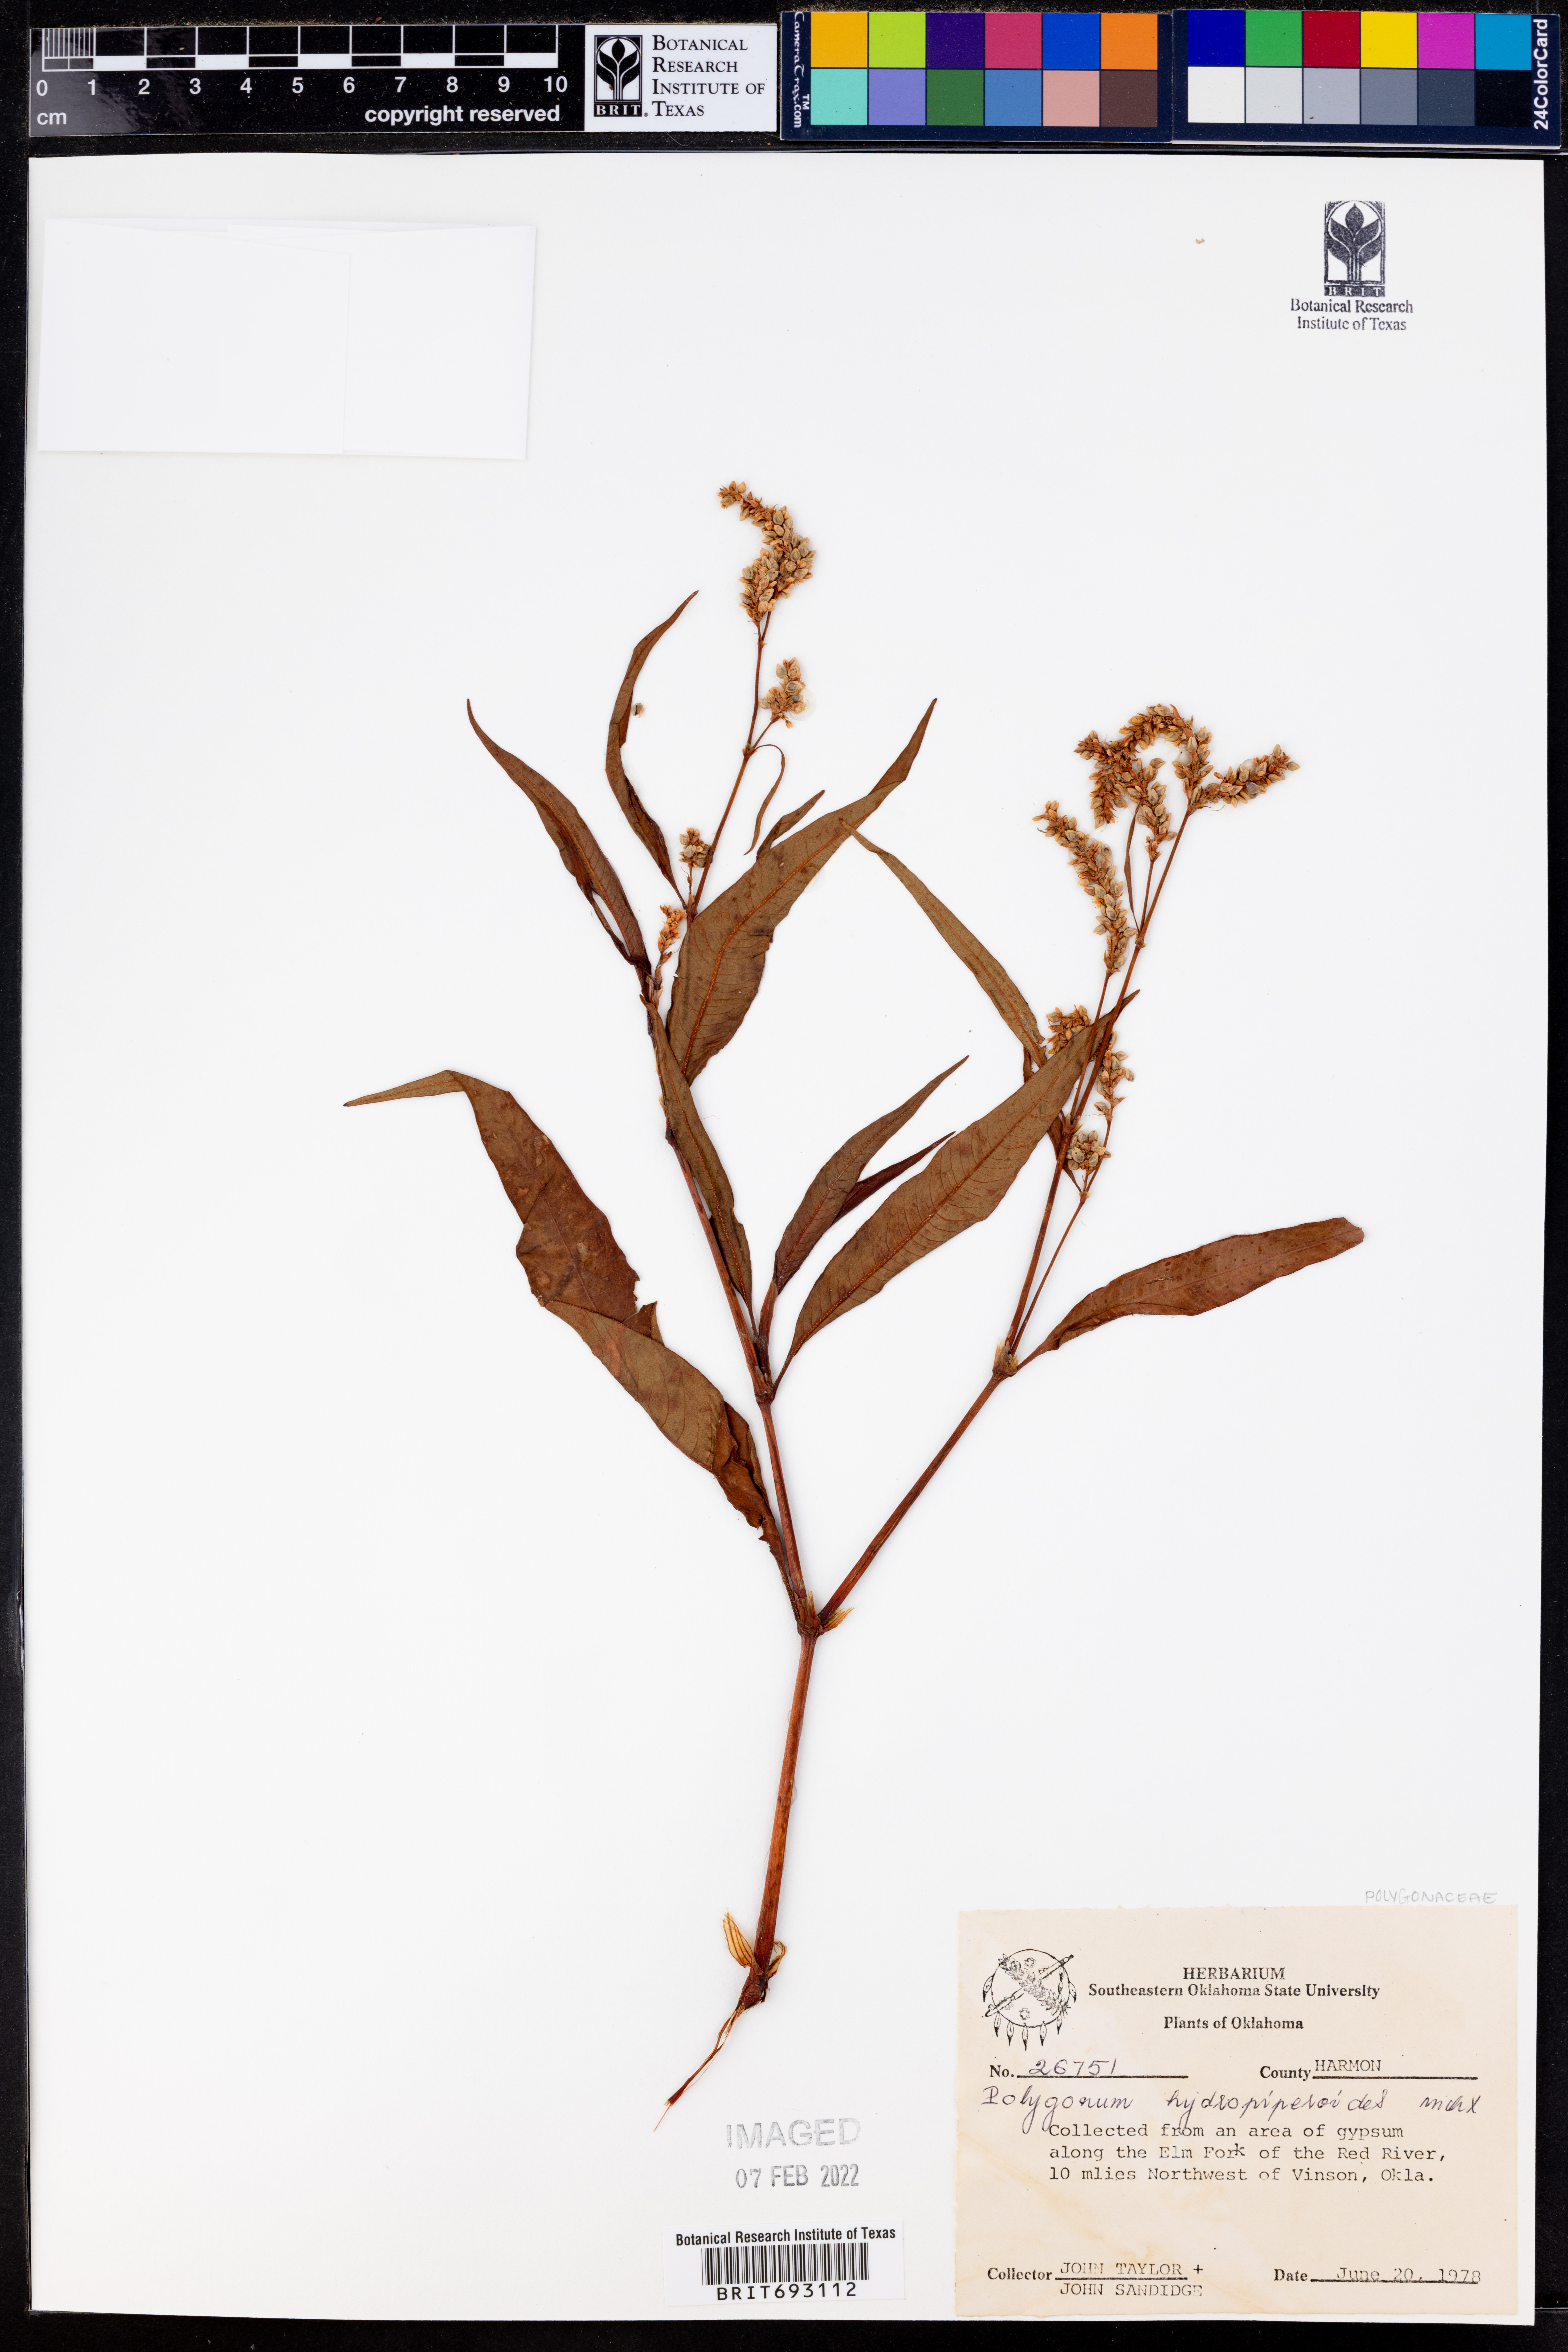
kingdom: Plantae
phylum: Tracheophyta
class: Magnoliopsida
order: Caryophyllales
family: Polygonaceae
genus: Persicaria
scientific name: Persicaria hydropiperoides
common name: Swamp smartweed
